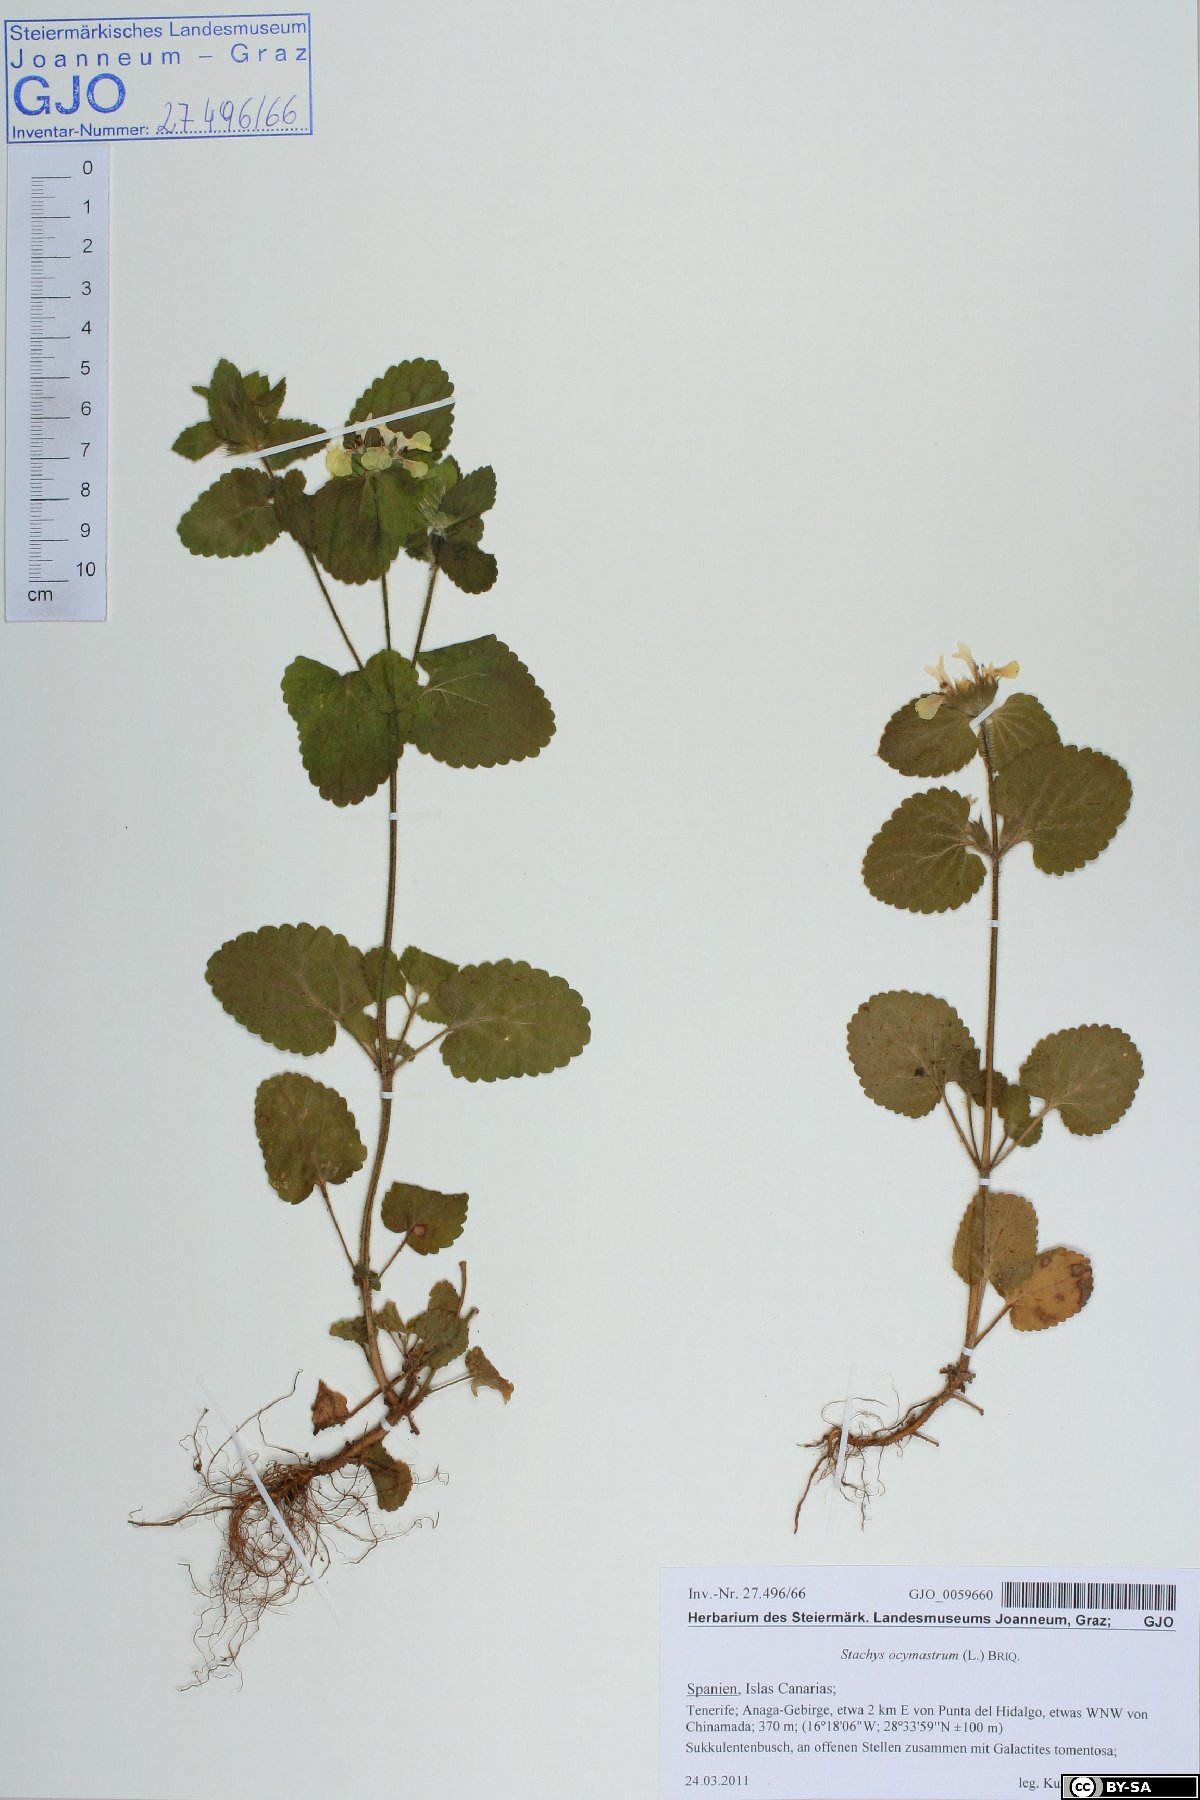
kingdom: Plantae
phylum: Tracheophyta
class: Magnoliopsida
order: Lamiales
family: Lamiaceae
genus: Stachys
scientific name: Stachys ocymastrum
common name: Italian hedgenettle
